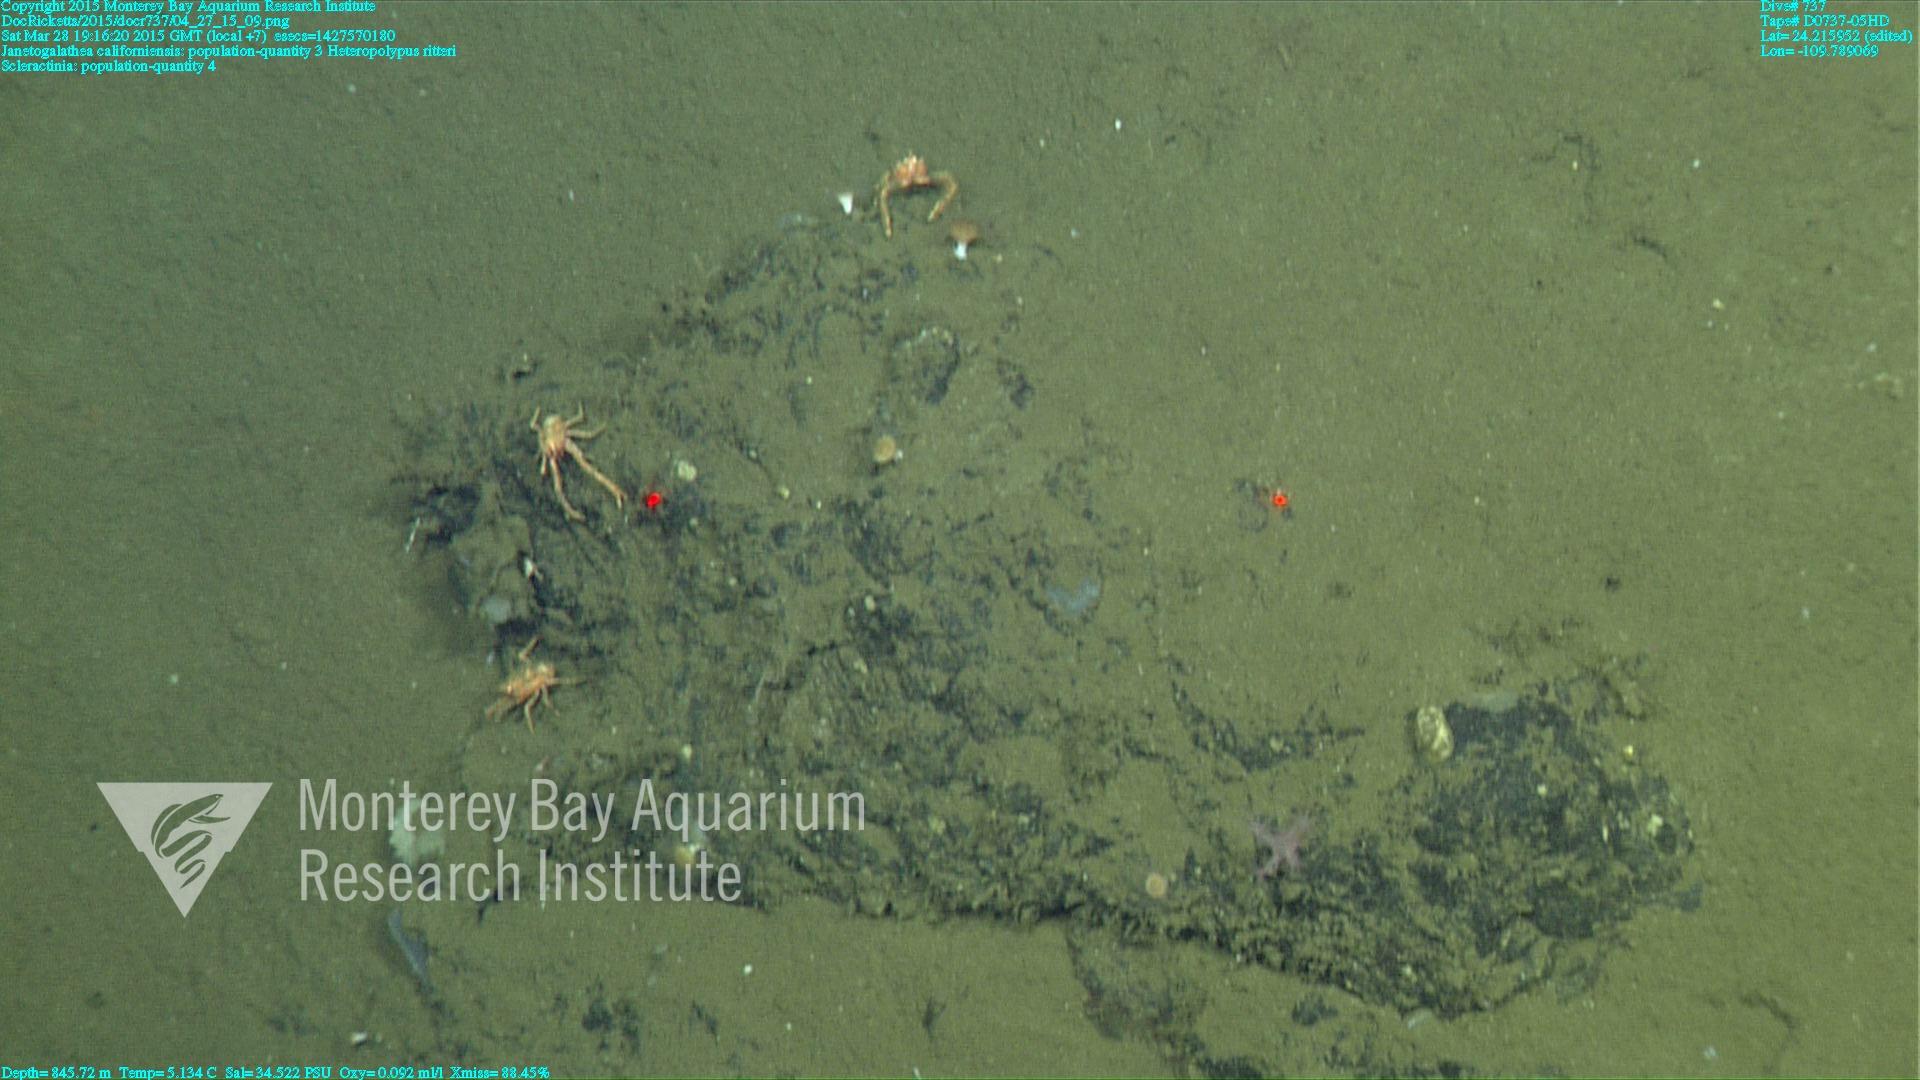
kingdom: Animalia
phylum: Cnidaria
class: Anthozoa
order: Scleractinia
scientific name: Scleractinia
